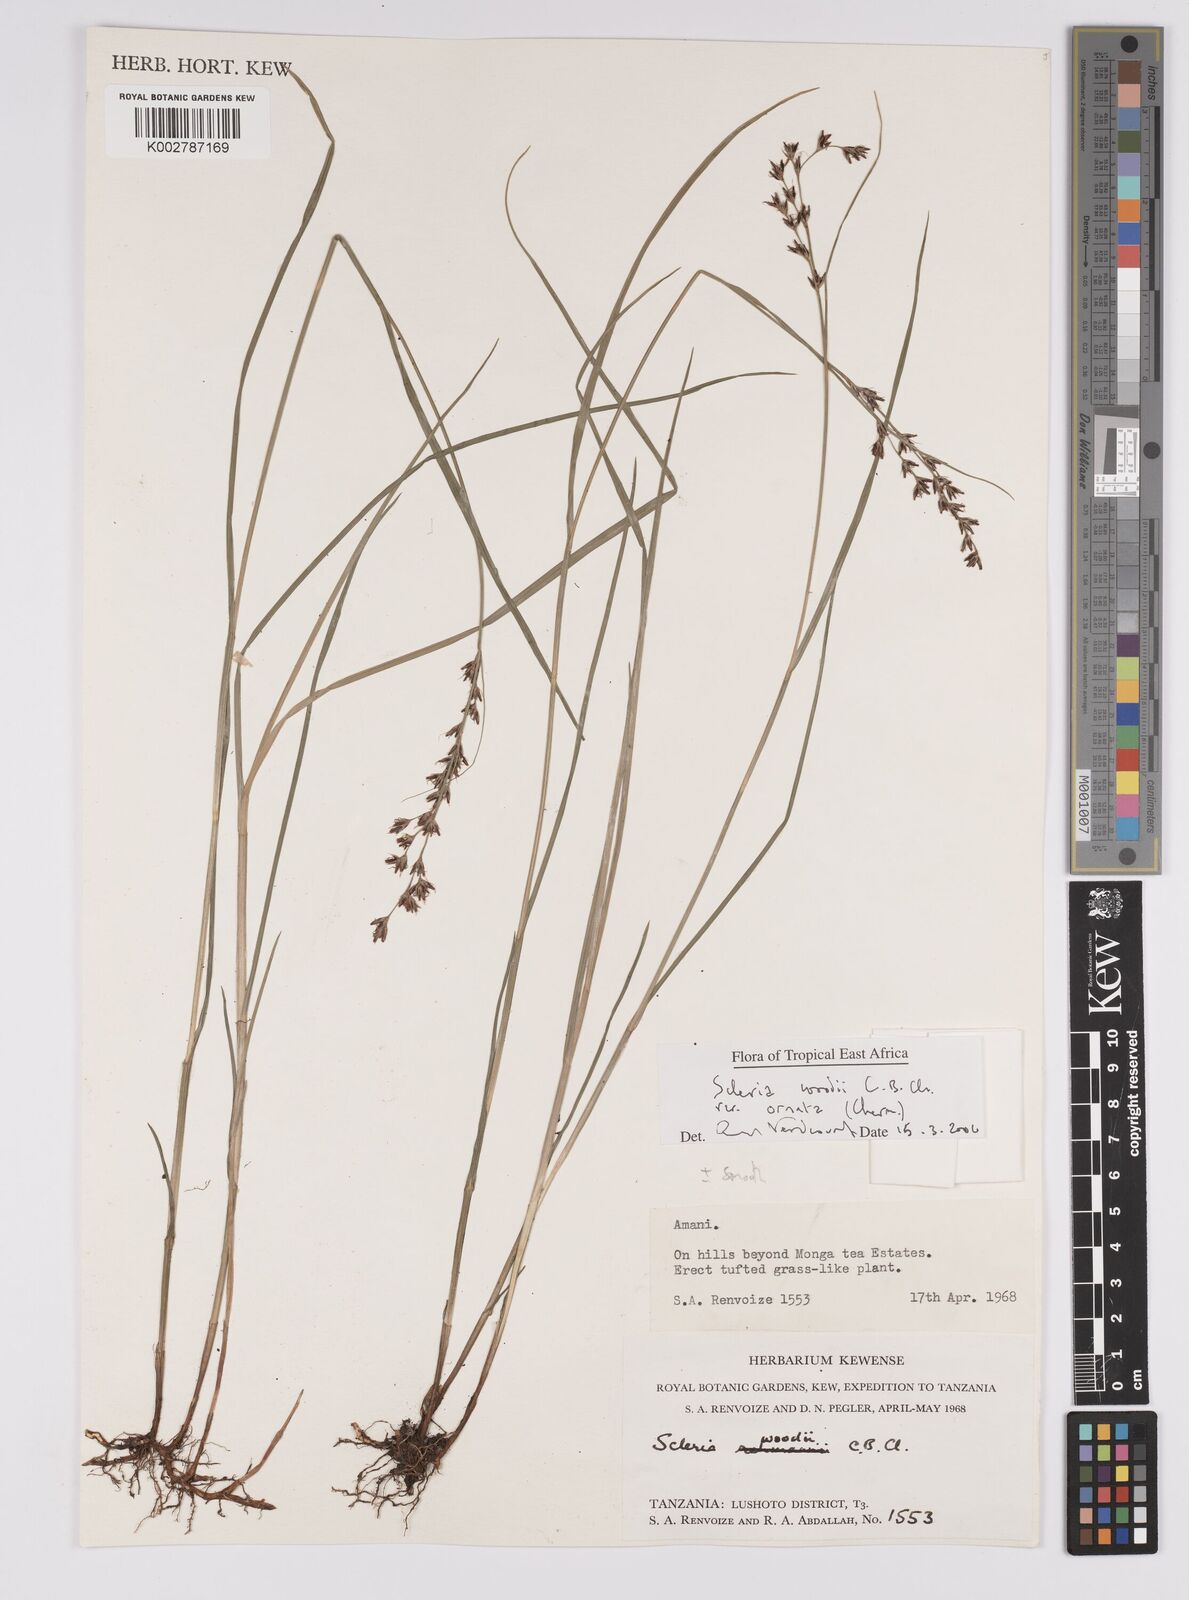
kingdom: Plantae
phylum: Tracheophyta
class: Liliopsida
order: Poales
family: Cyperaceae
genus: Scleria
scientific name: Scleria woodii
